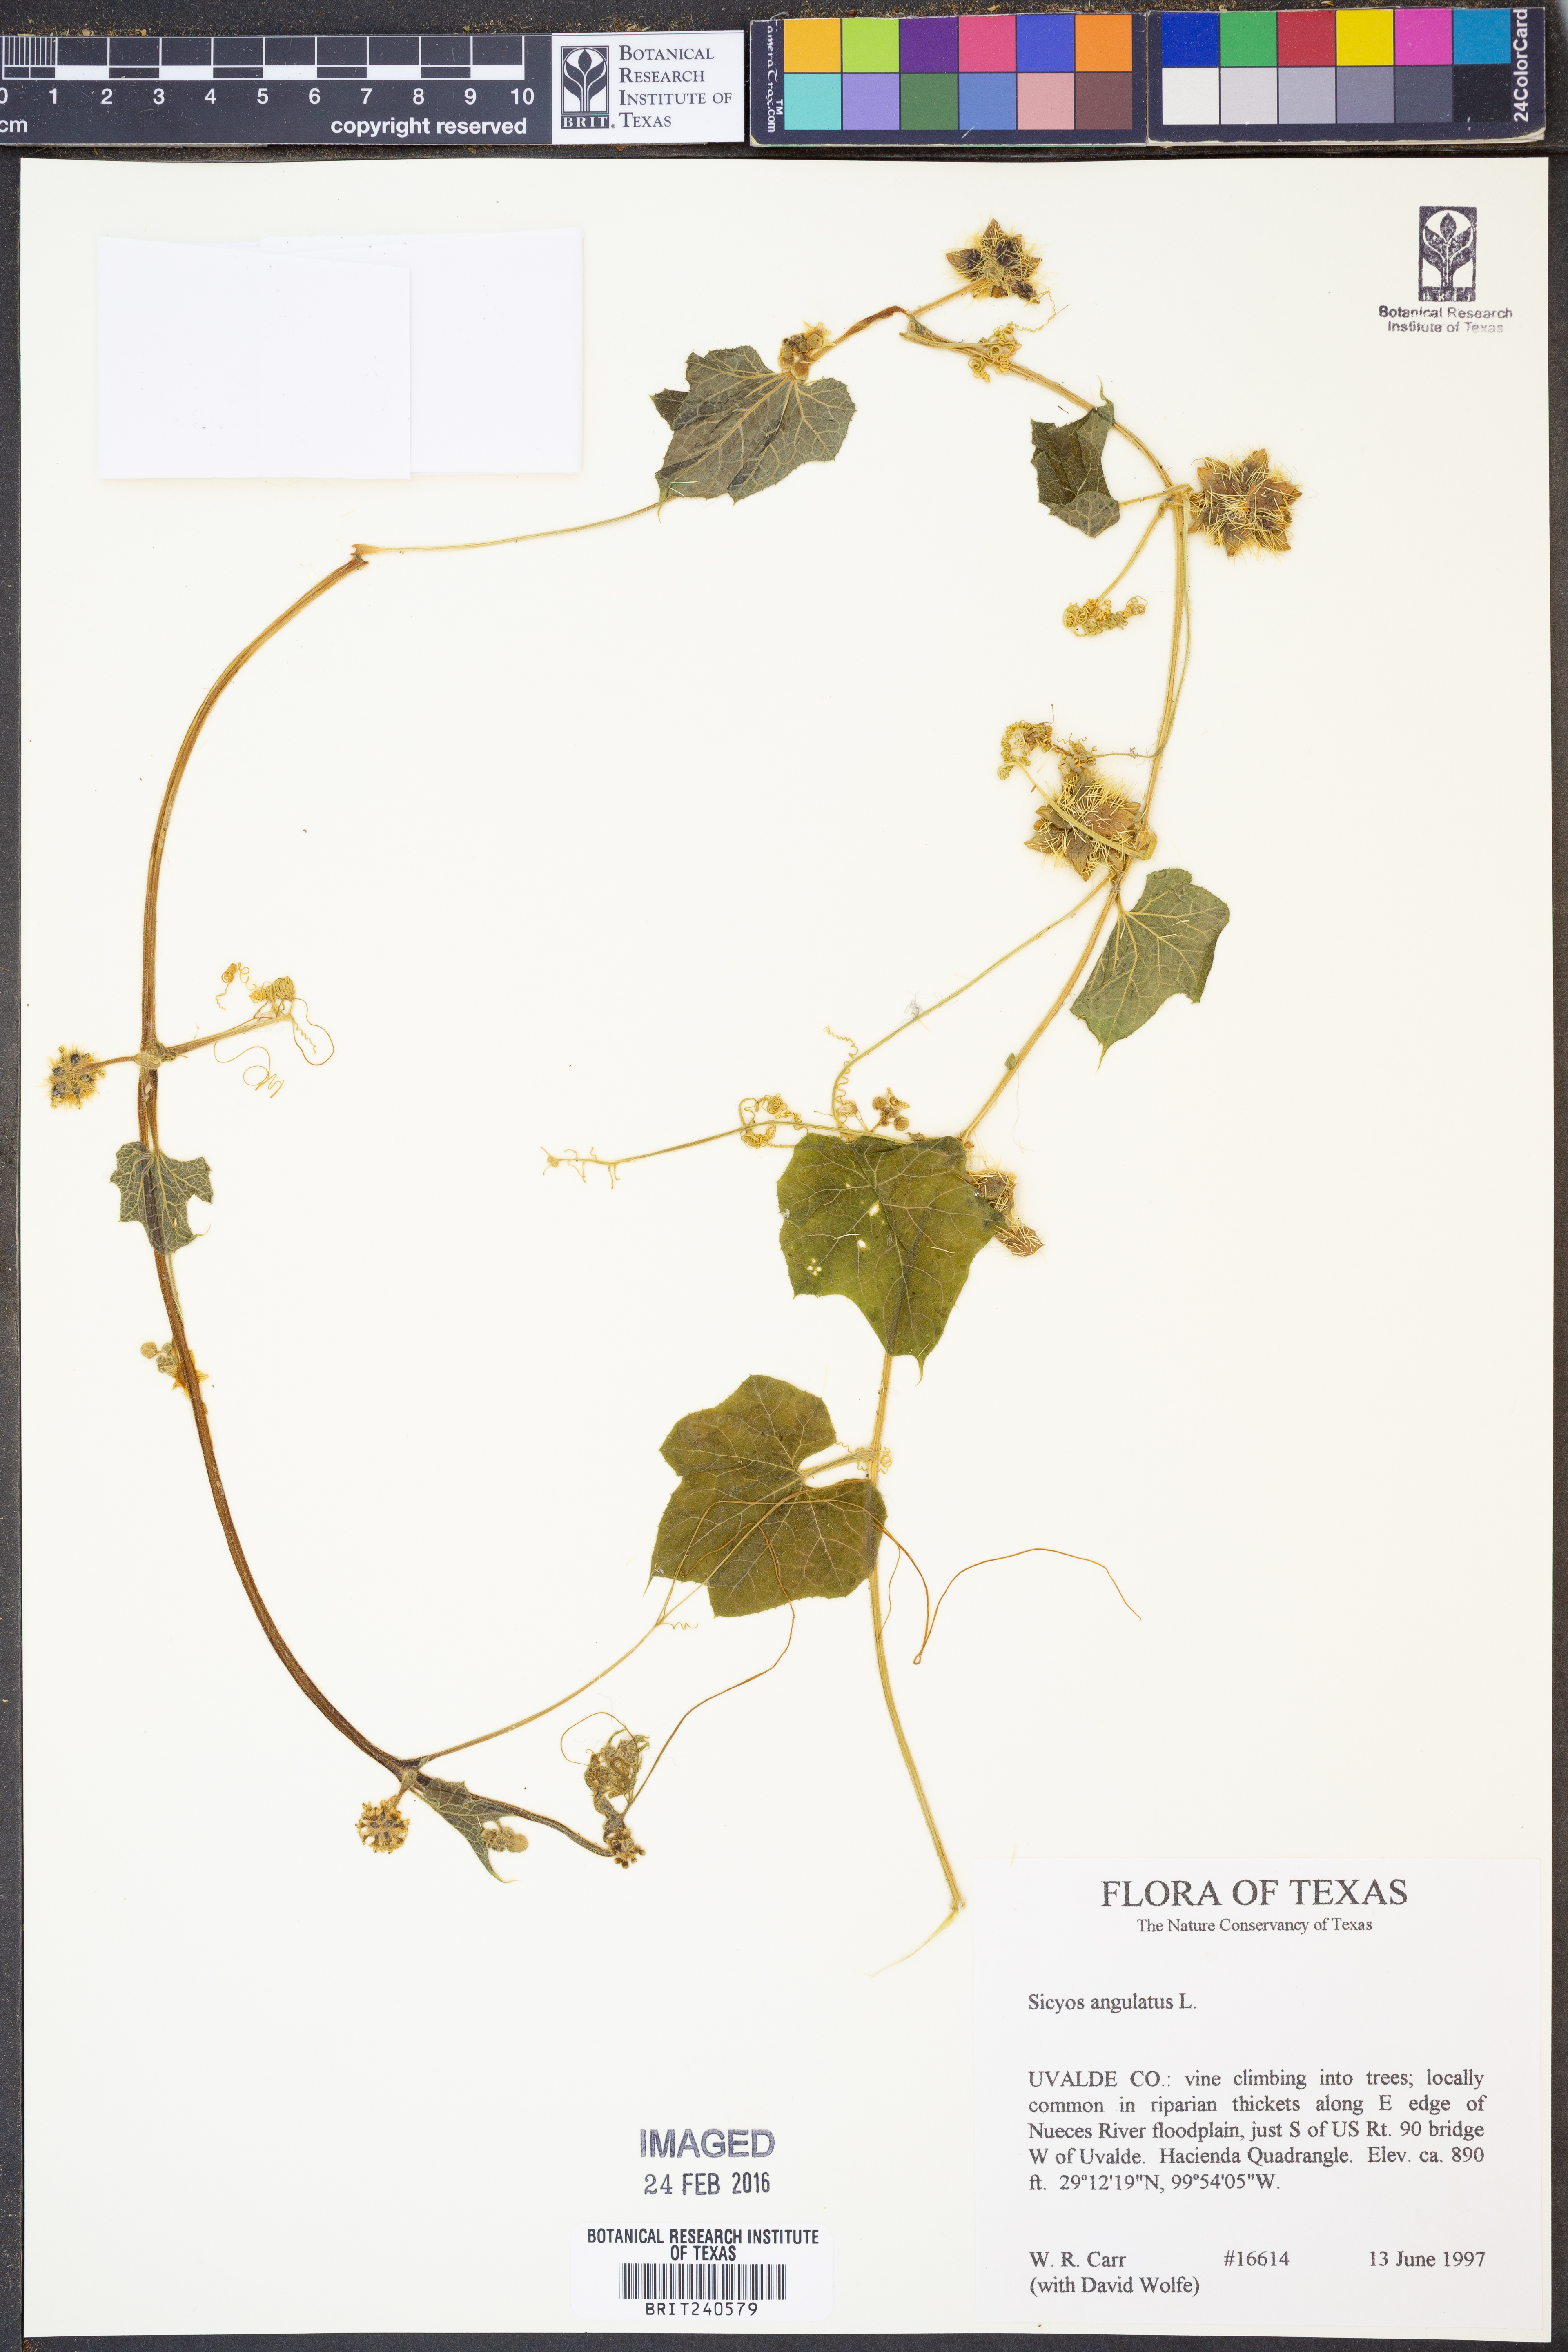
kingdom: Plantae
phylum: Tracheophyta
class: Magnoliopsida
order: Cucurbitales
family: Cucurbitaceae
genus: Sicyos
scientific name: Sicyos angulatus
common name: Angled burr cucumber
